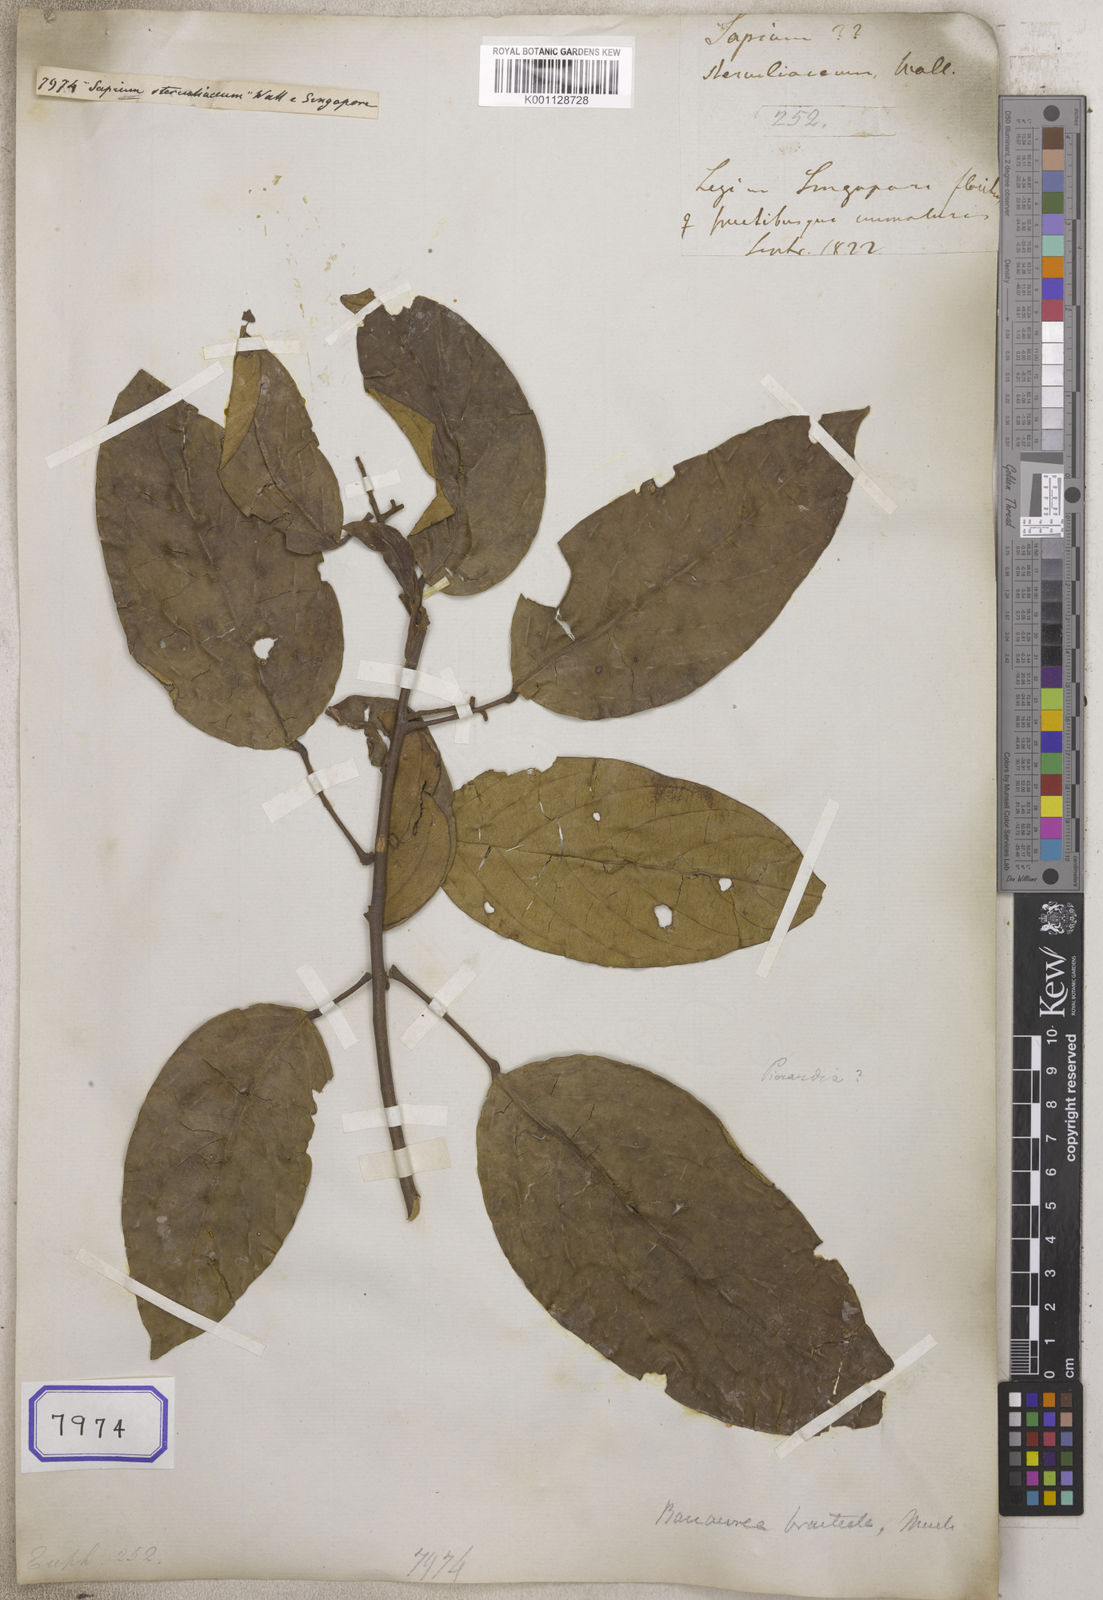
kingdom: Plantae
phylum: Tracheophyta
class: Magnoliopsida
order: Malpighiales
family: Euphorbiaceae
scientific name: Euphorbiaceae
